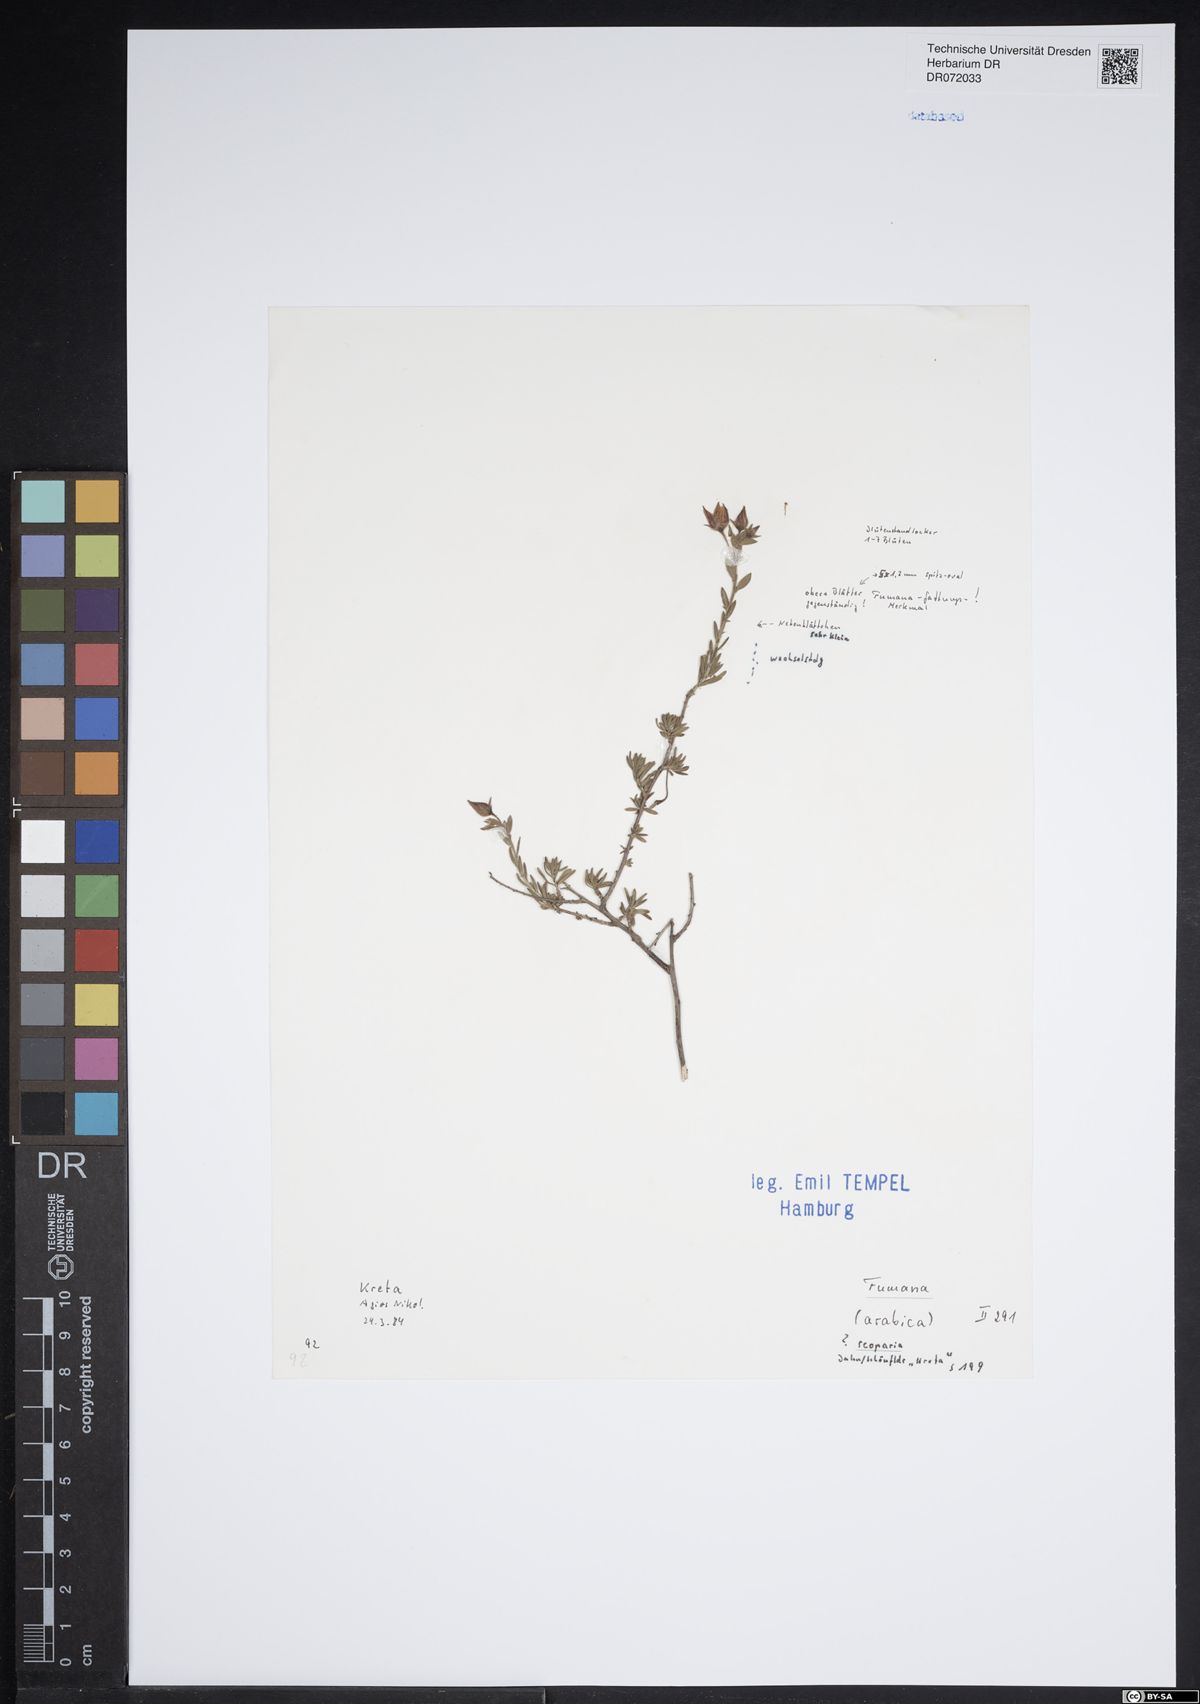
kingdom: Plantae
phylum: Tracheophyta
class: Magnoliopsida
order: Malvales
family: Cistaceae
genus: Fumana
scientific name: Fumana scoparia
